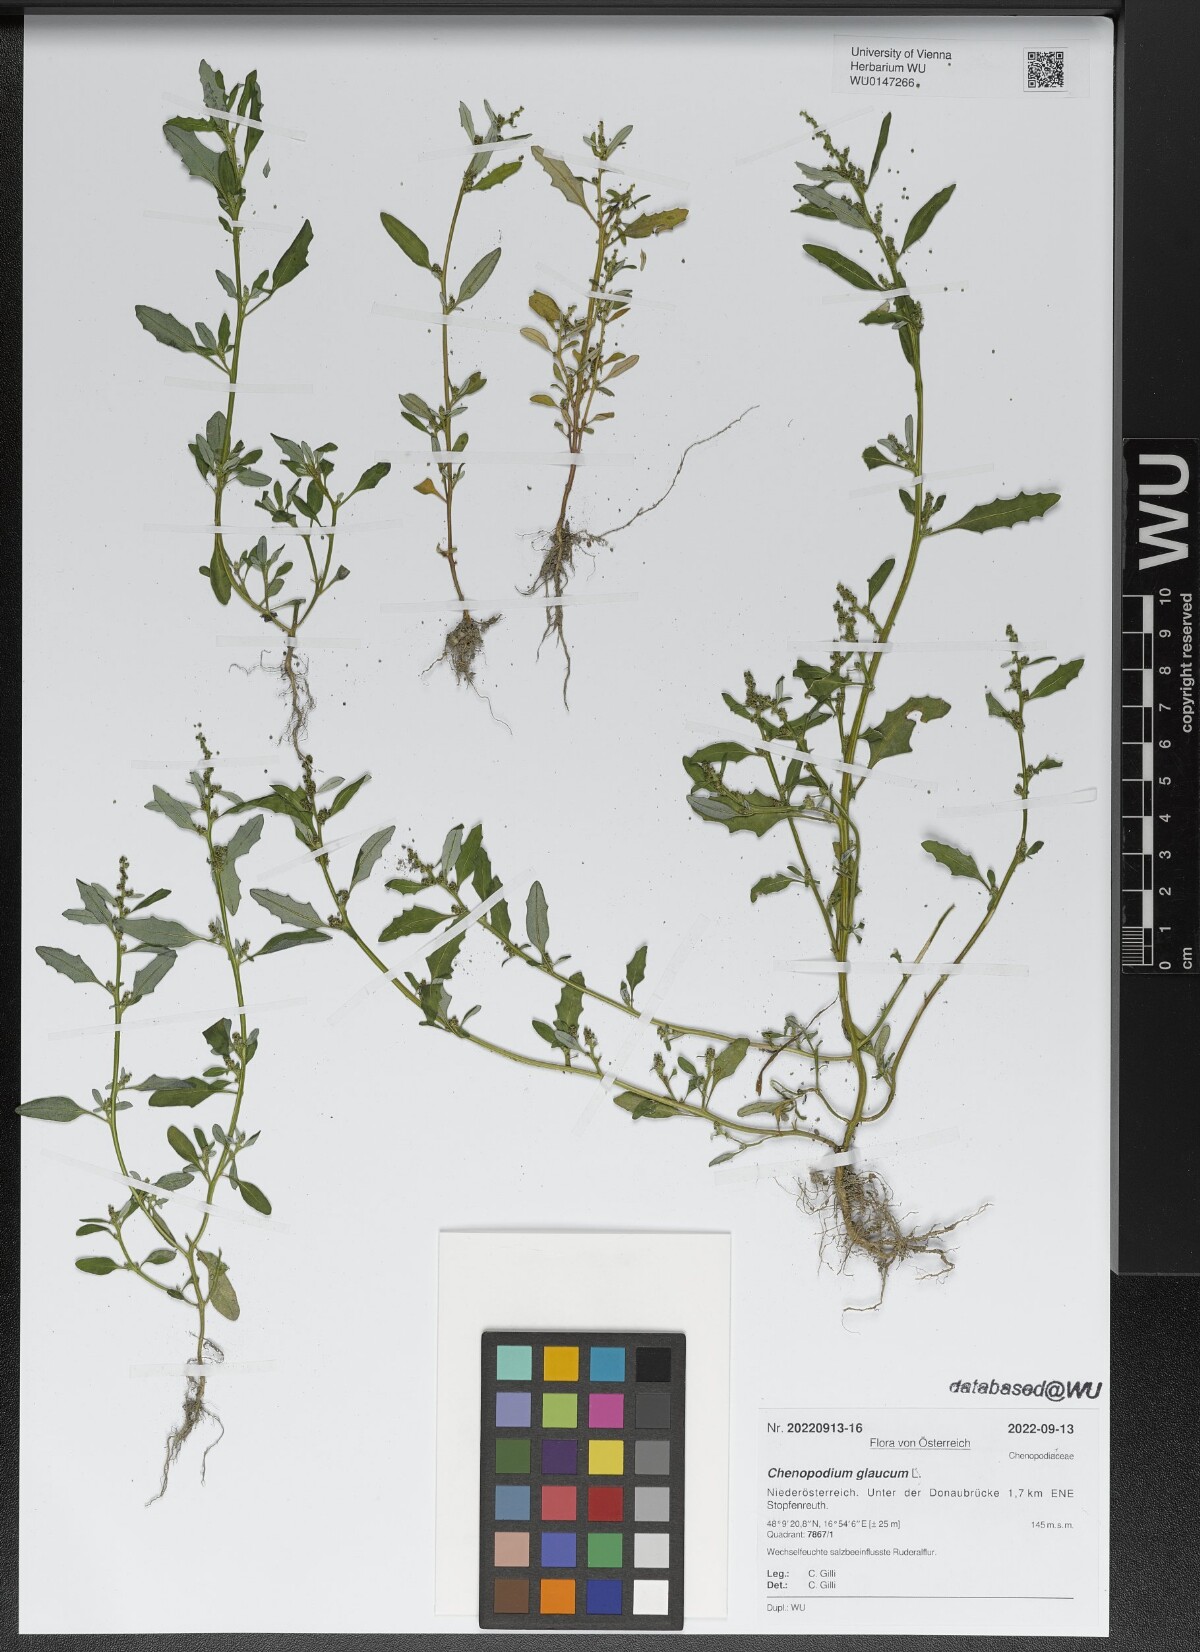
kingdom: Plantae
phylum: Tracheophyta
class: Magnoliopsida
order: Caryophyllales
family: Amaranthaceae
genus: Oxybasis
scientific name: Oxybasis glauca
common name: Glaucous goosefoot
